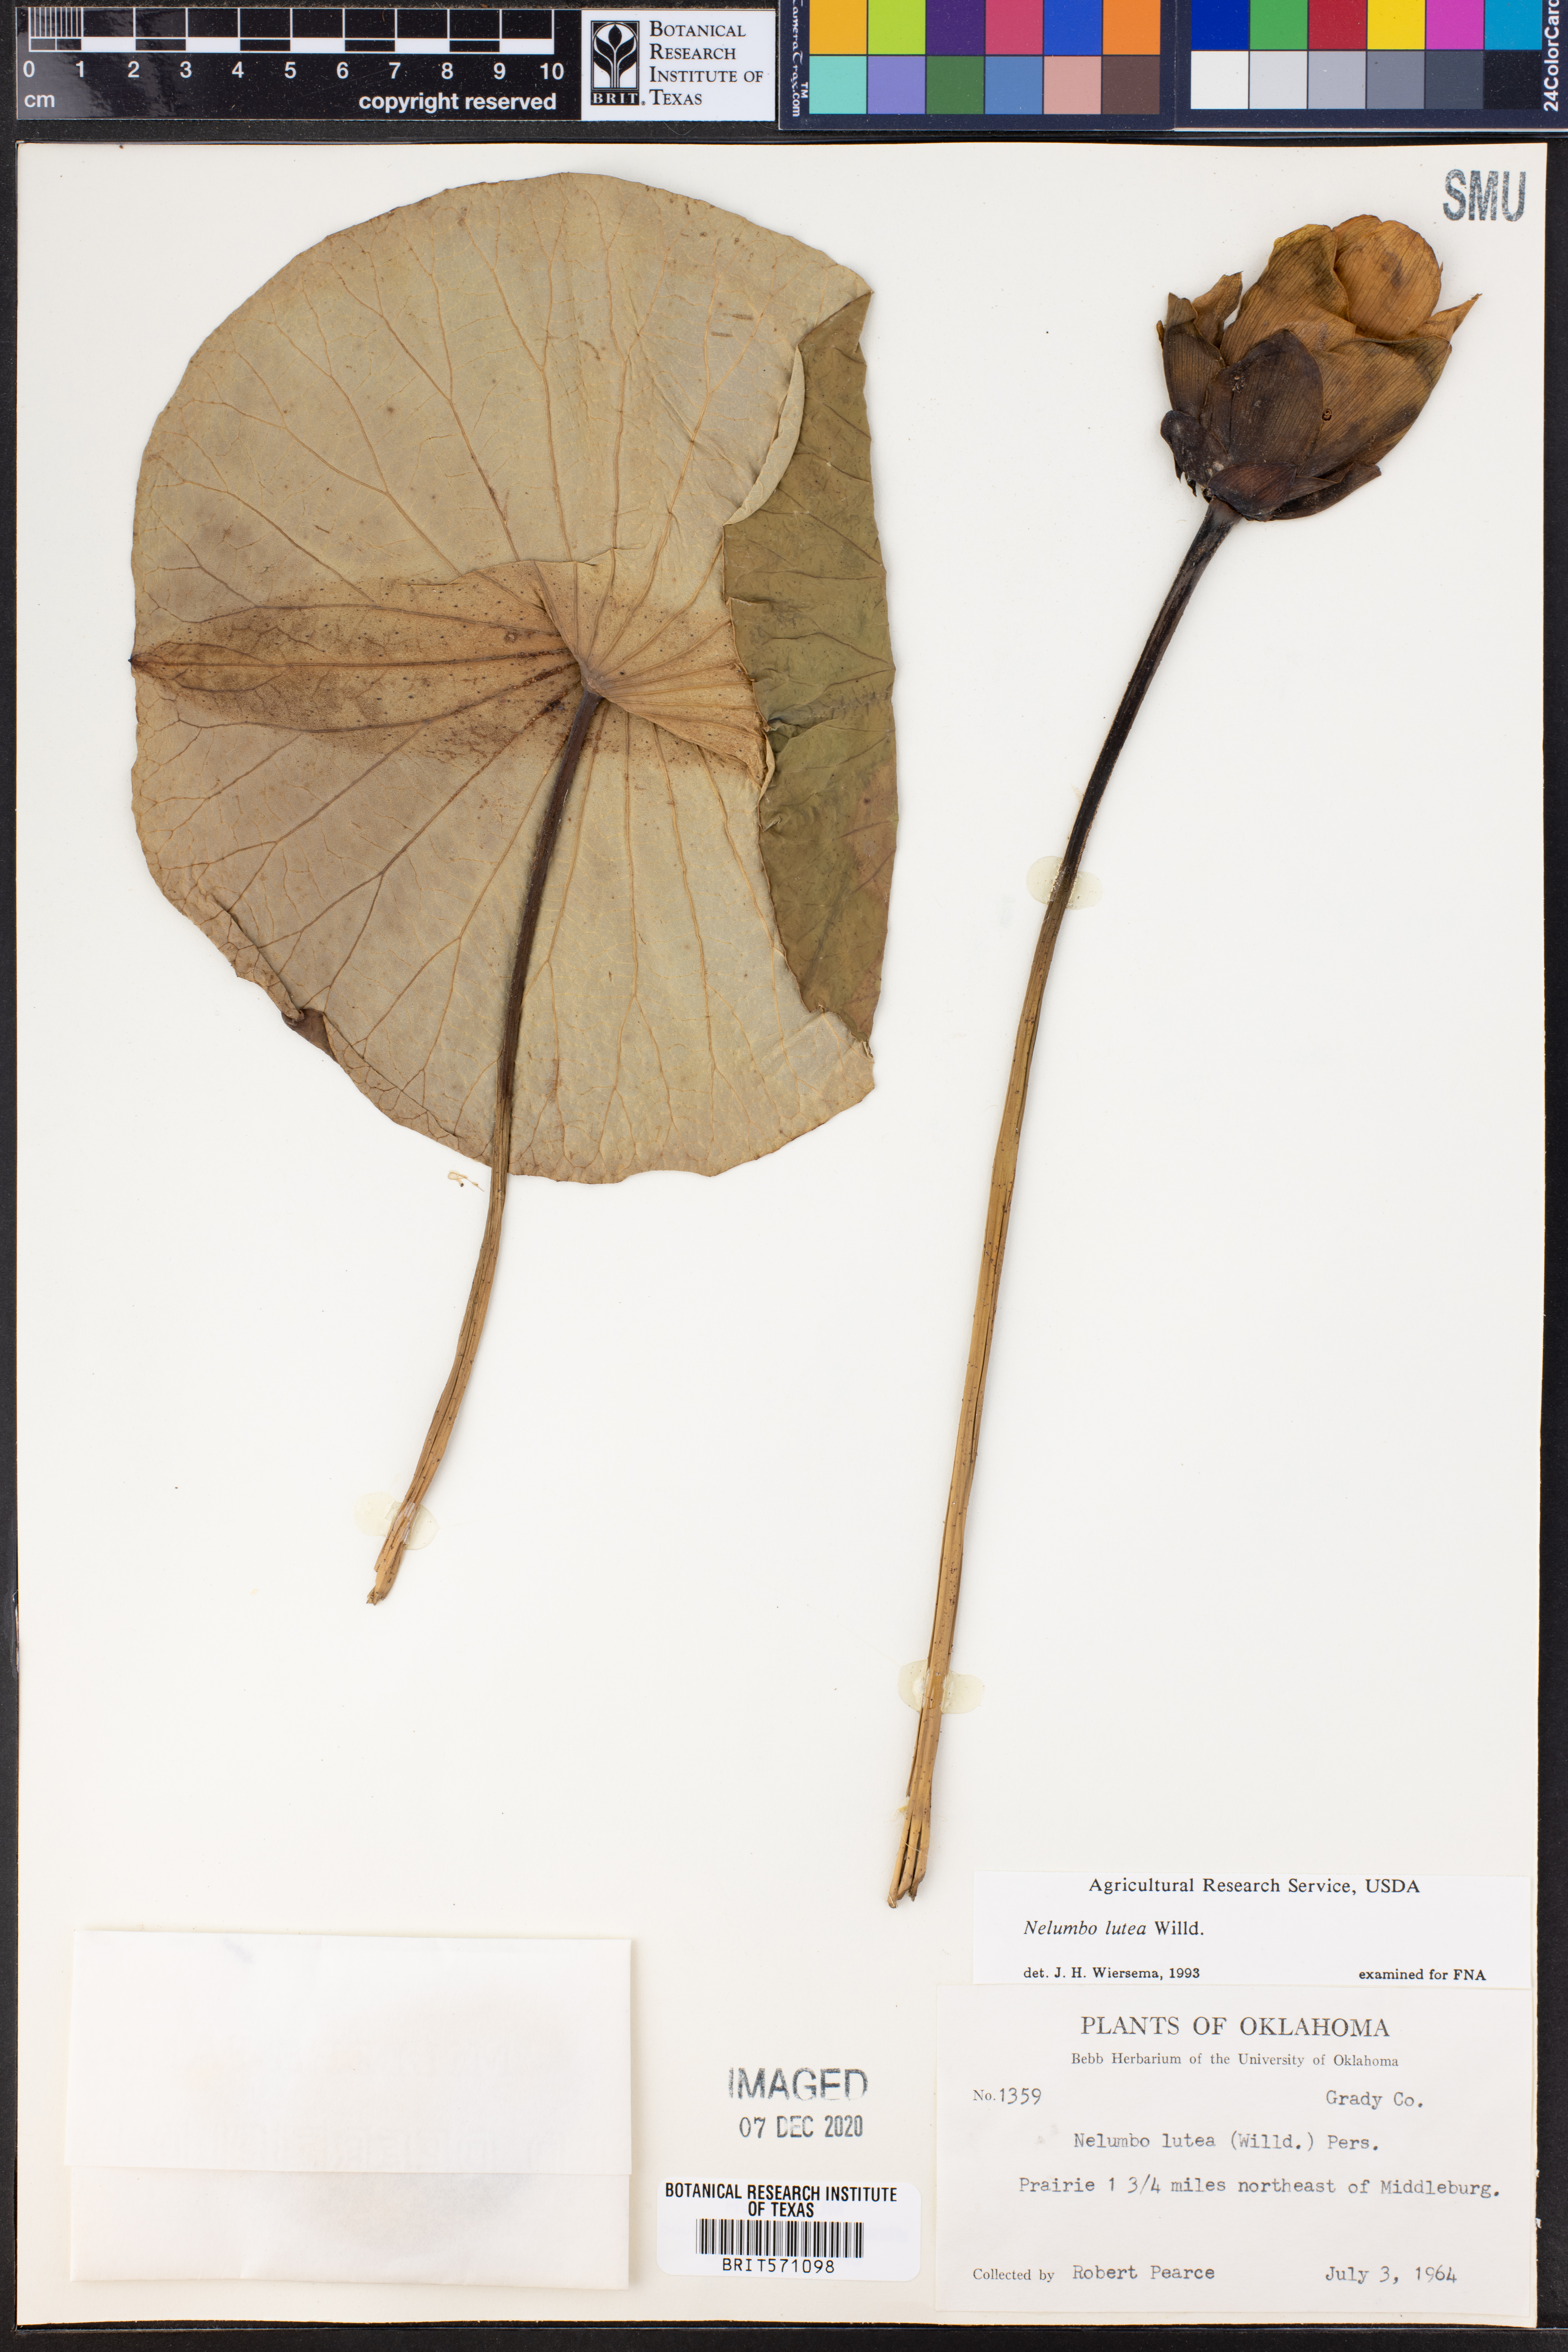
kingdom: Plantae
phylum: Tracheophyta
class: Magnoliopsida
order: Proteales
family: Nelumbonaceae
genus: Nelumbo
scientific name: Nelumbo lutea
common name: American lotus
